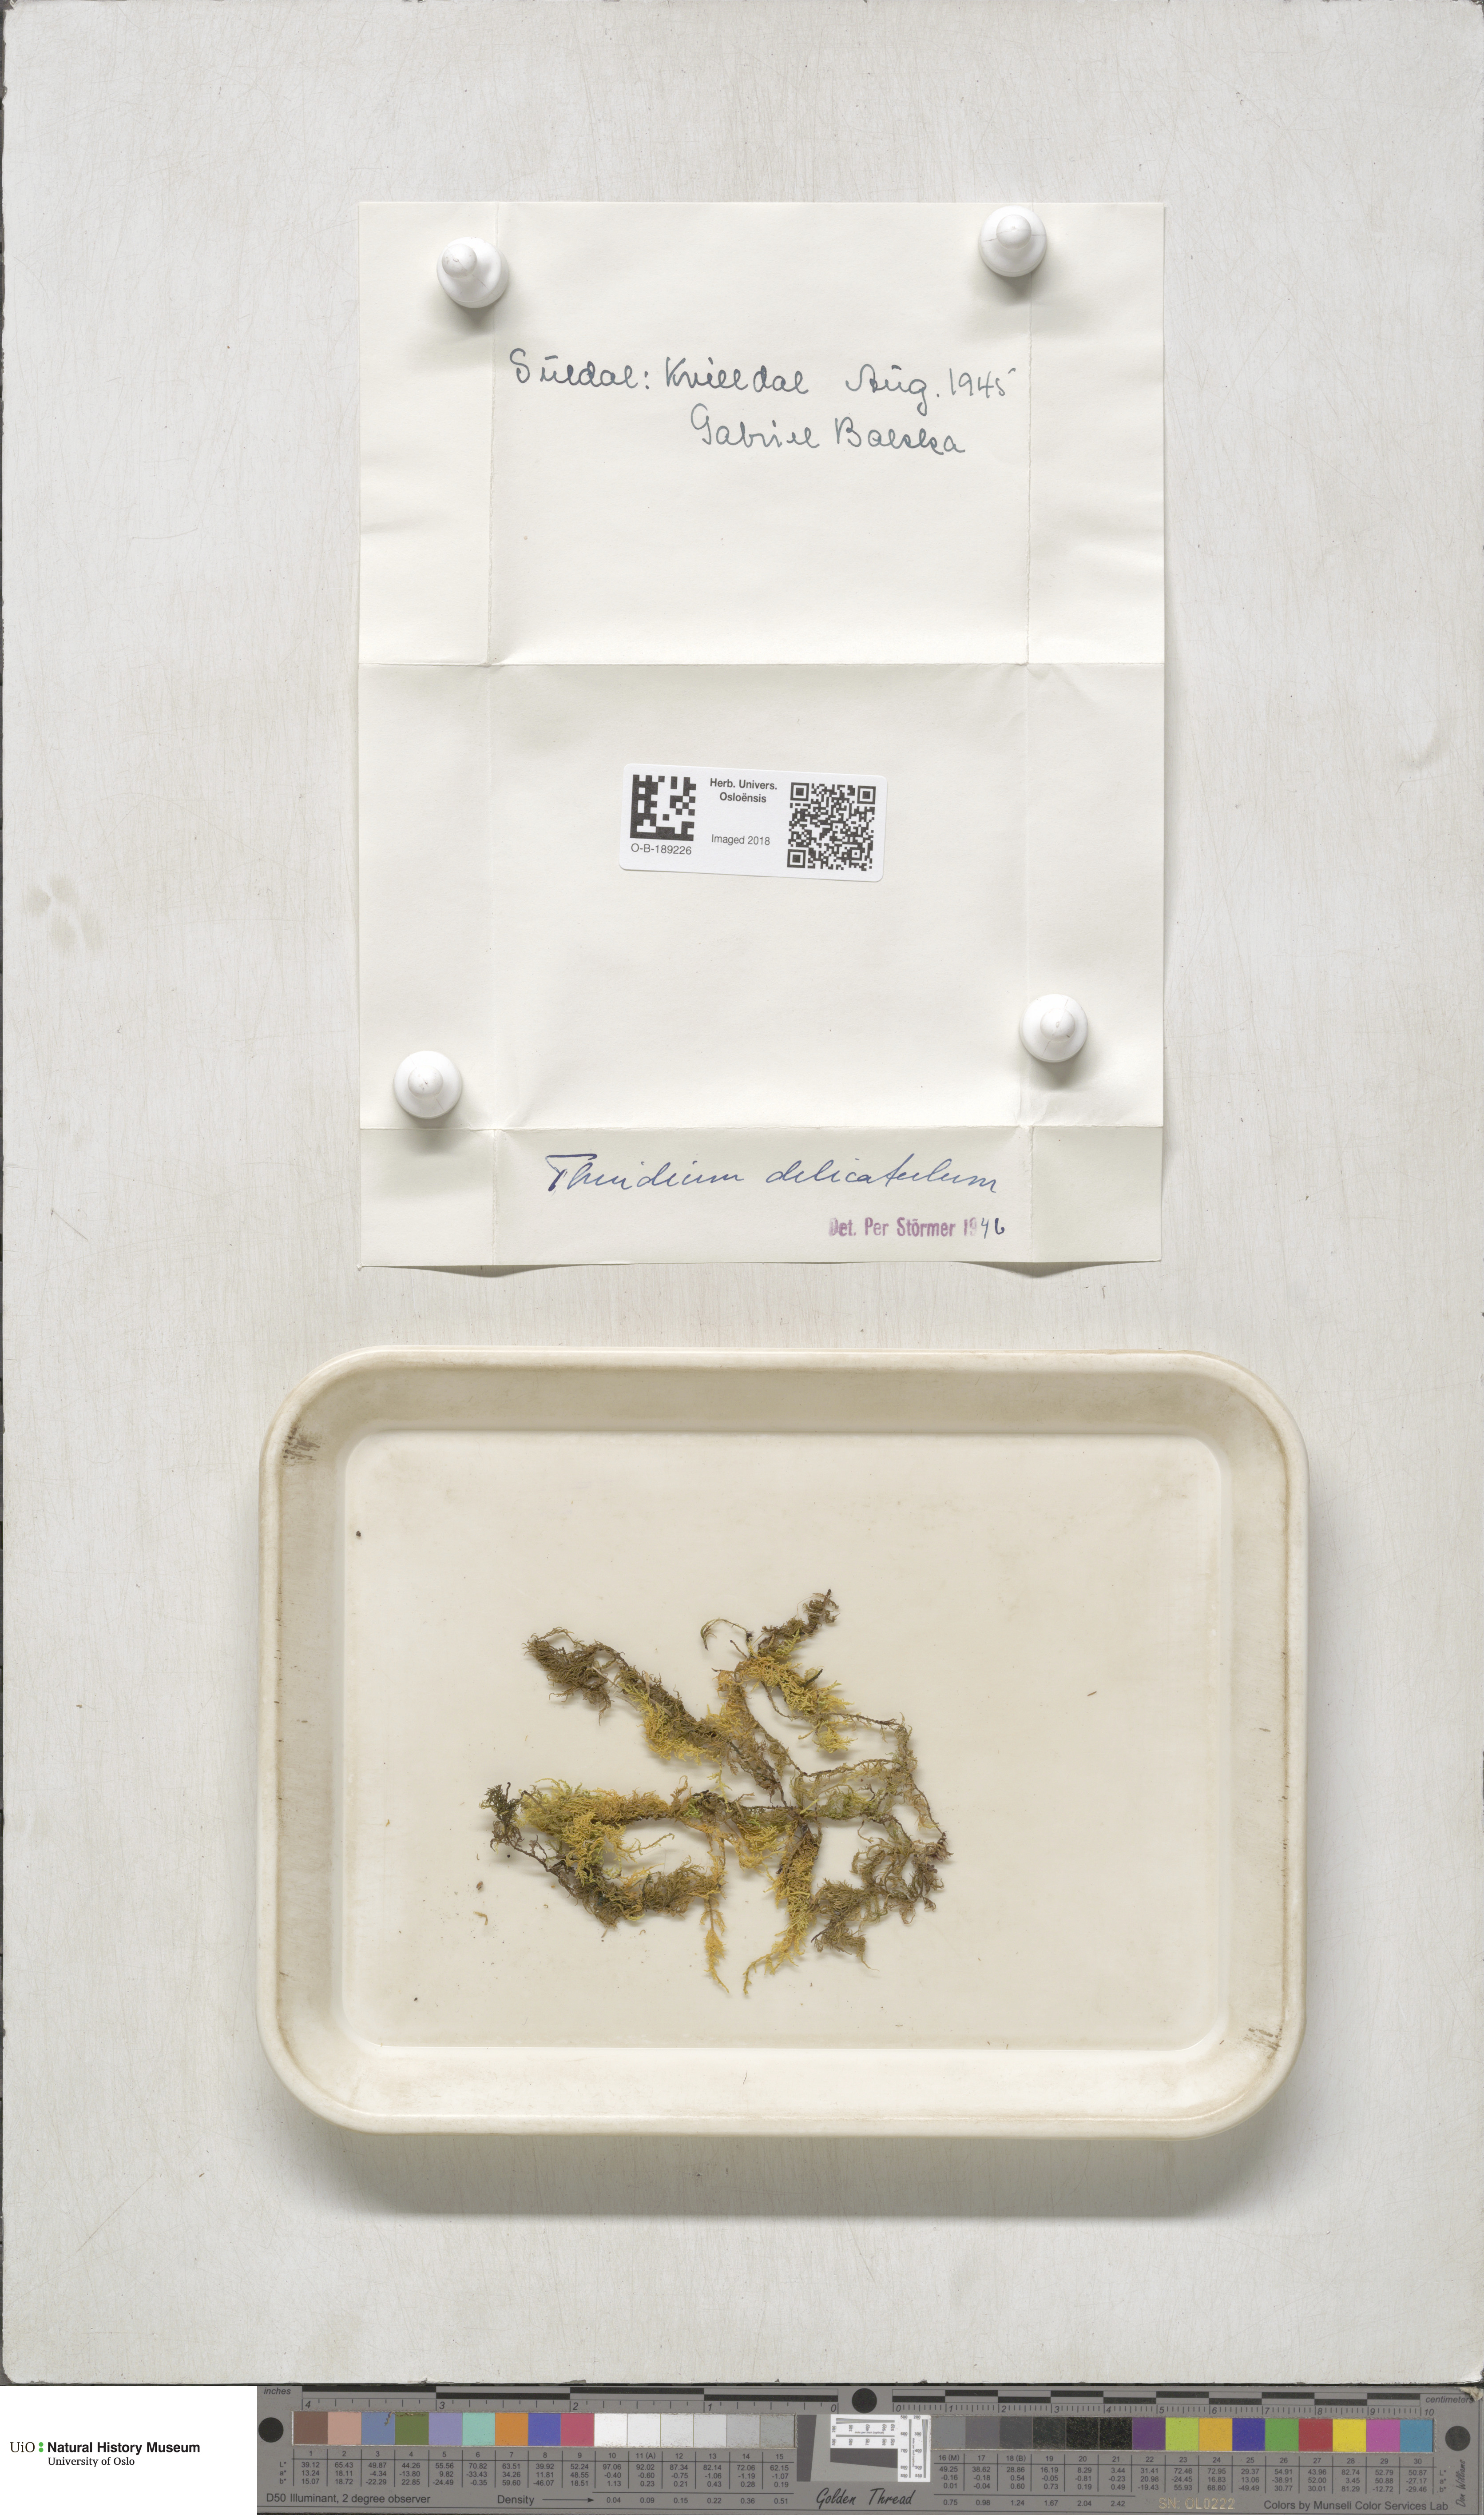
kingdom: Plantae
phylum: Bryophyta
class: Bryopsida
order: Hypnales
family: Thuidiaceae
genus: Thuidium
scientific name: Thuidium delicatulum
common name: Delicate fern moss
